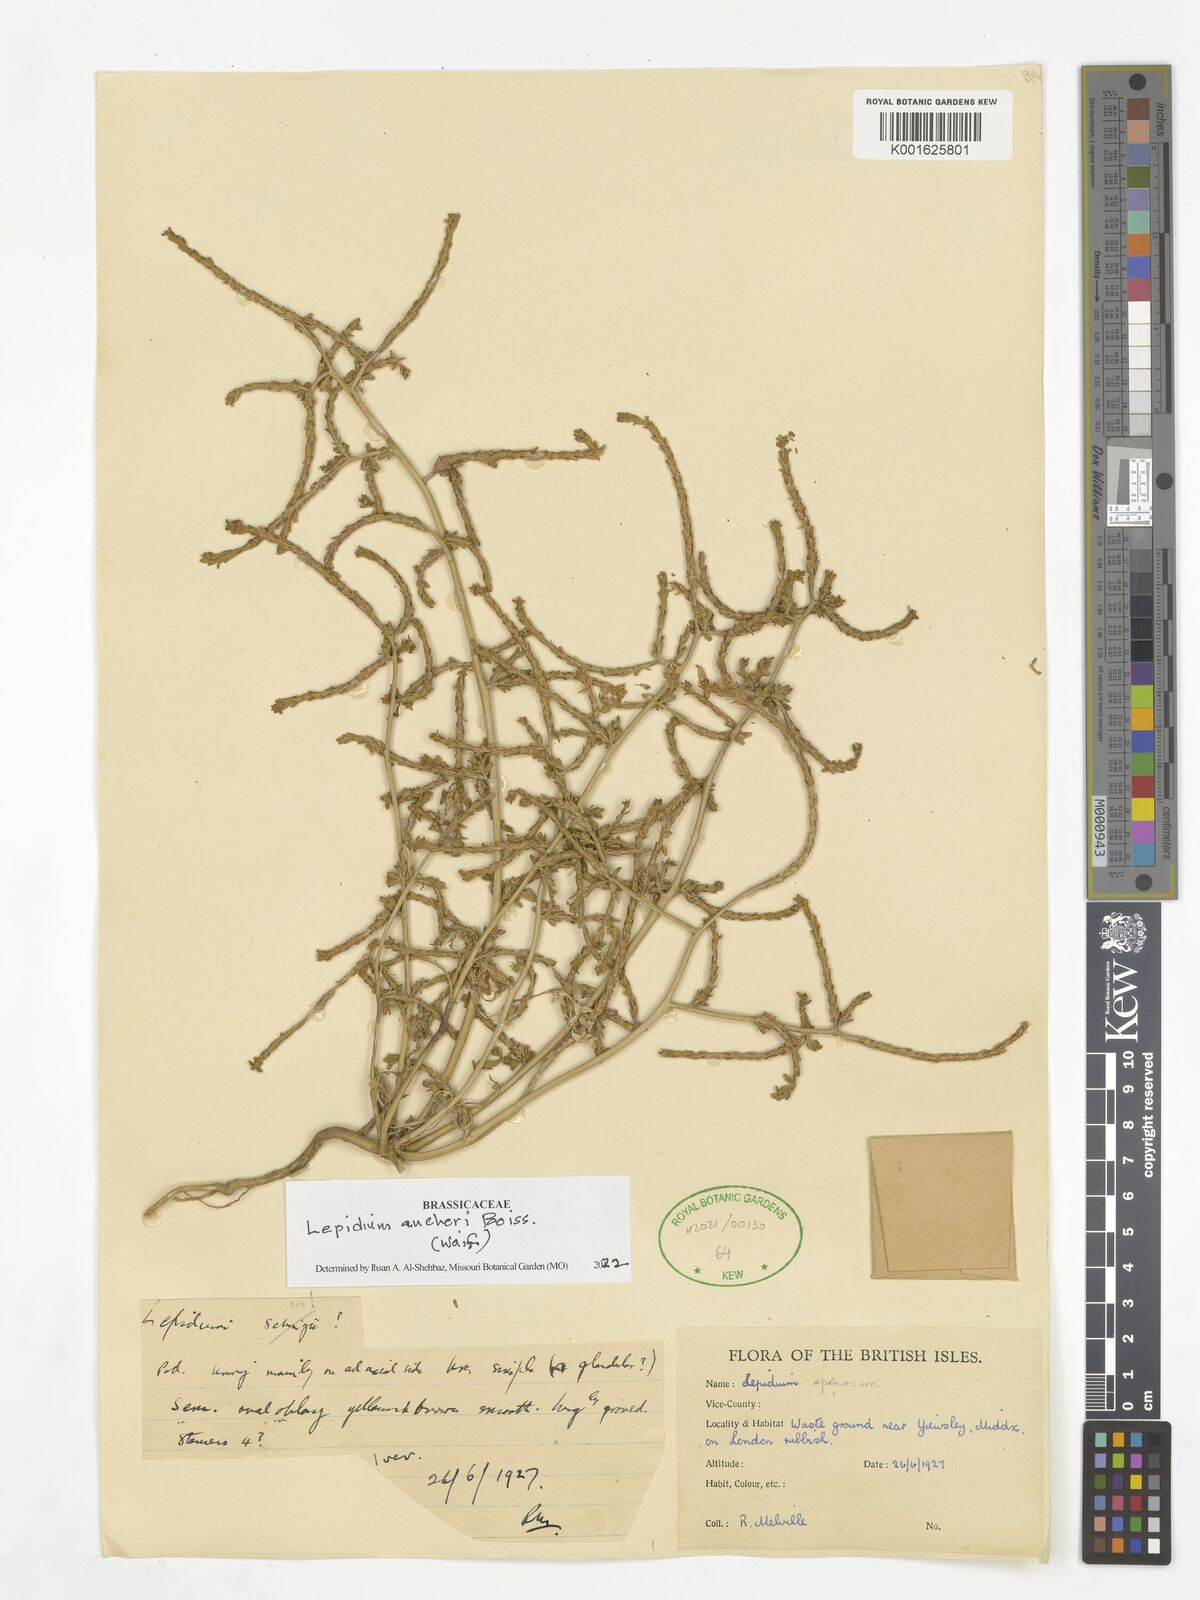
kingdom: Plantae
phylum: Tracheophyta
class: Magnoliopsida
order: Brassicales
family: Brassicaceae
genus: Lepidium
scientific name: Lepidium aucheri
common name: Aucher's peppergrass
